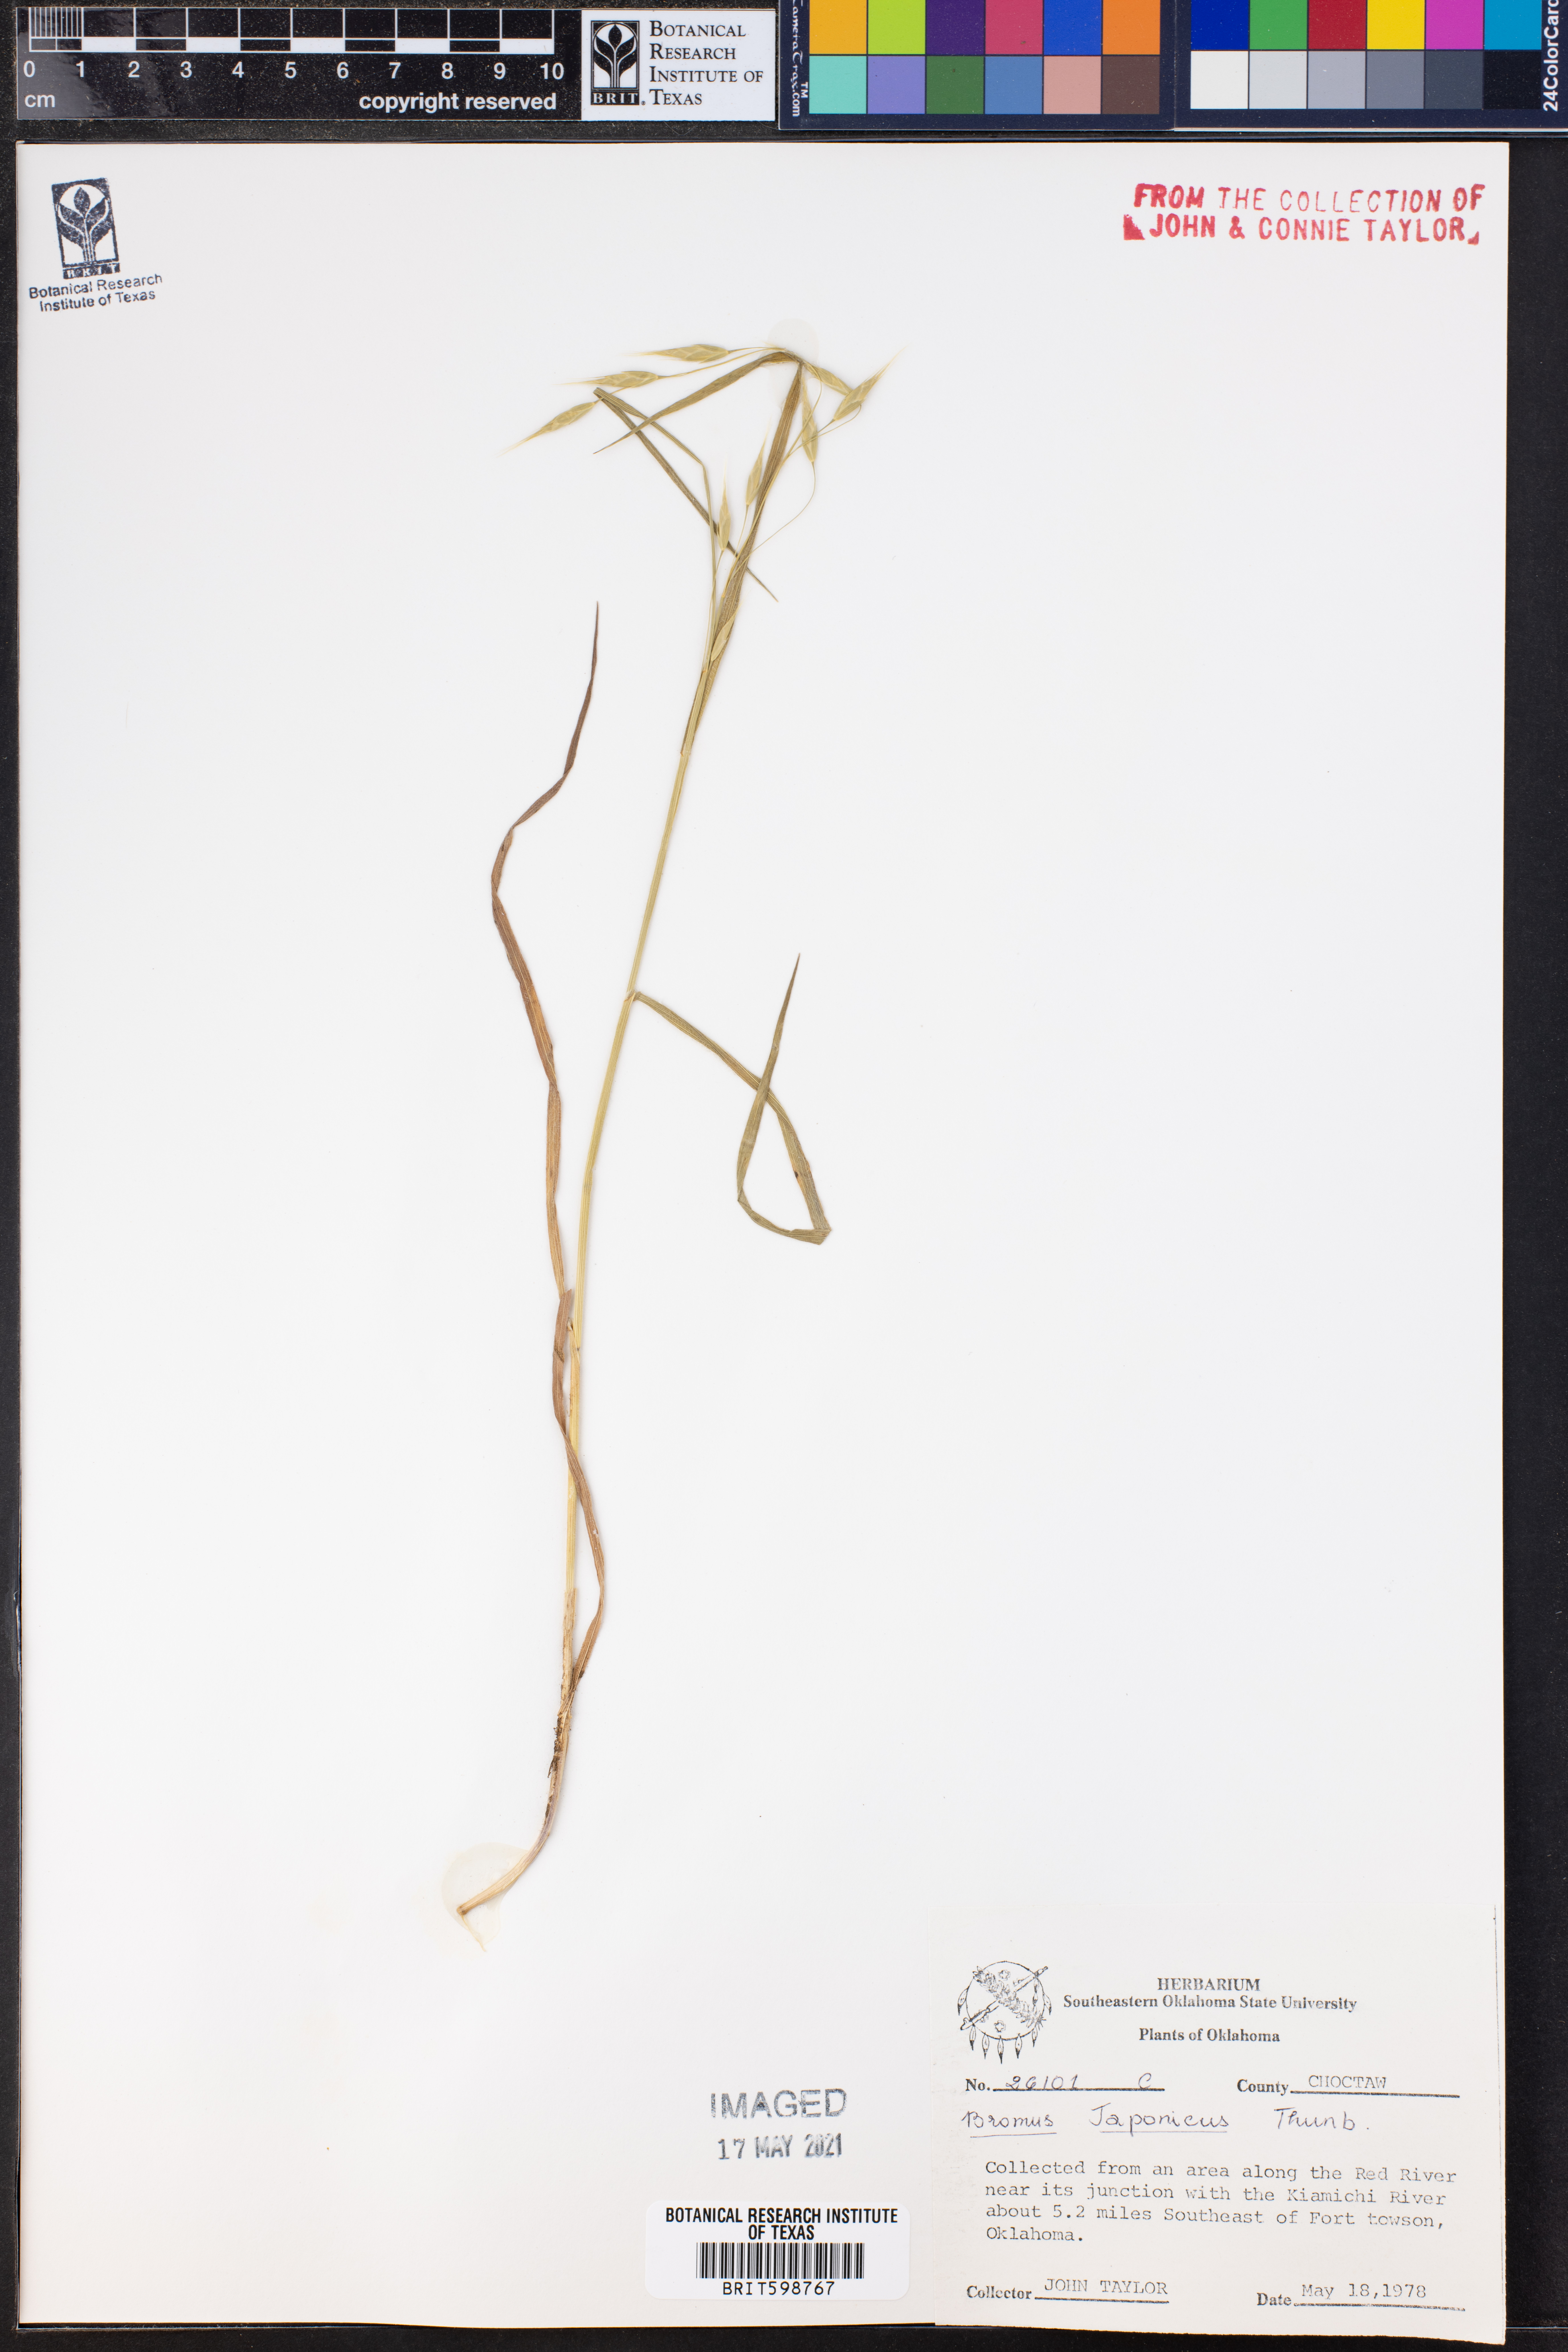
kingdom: Plantae
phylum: Tracheophyta
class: Liliopsida
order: Poales
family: Poaceae
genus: Bromus
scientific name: Bromus japonicus
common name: Japanese brome
